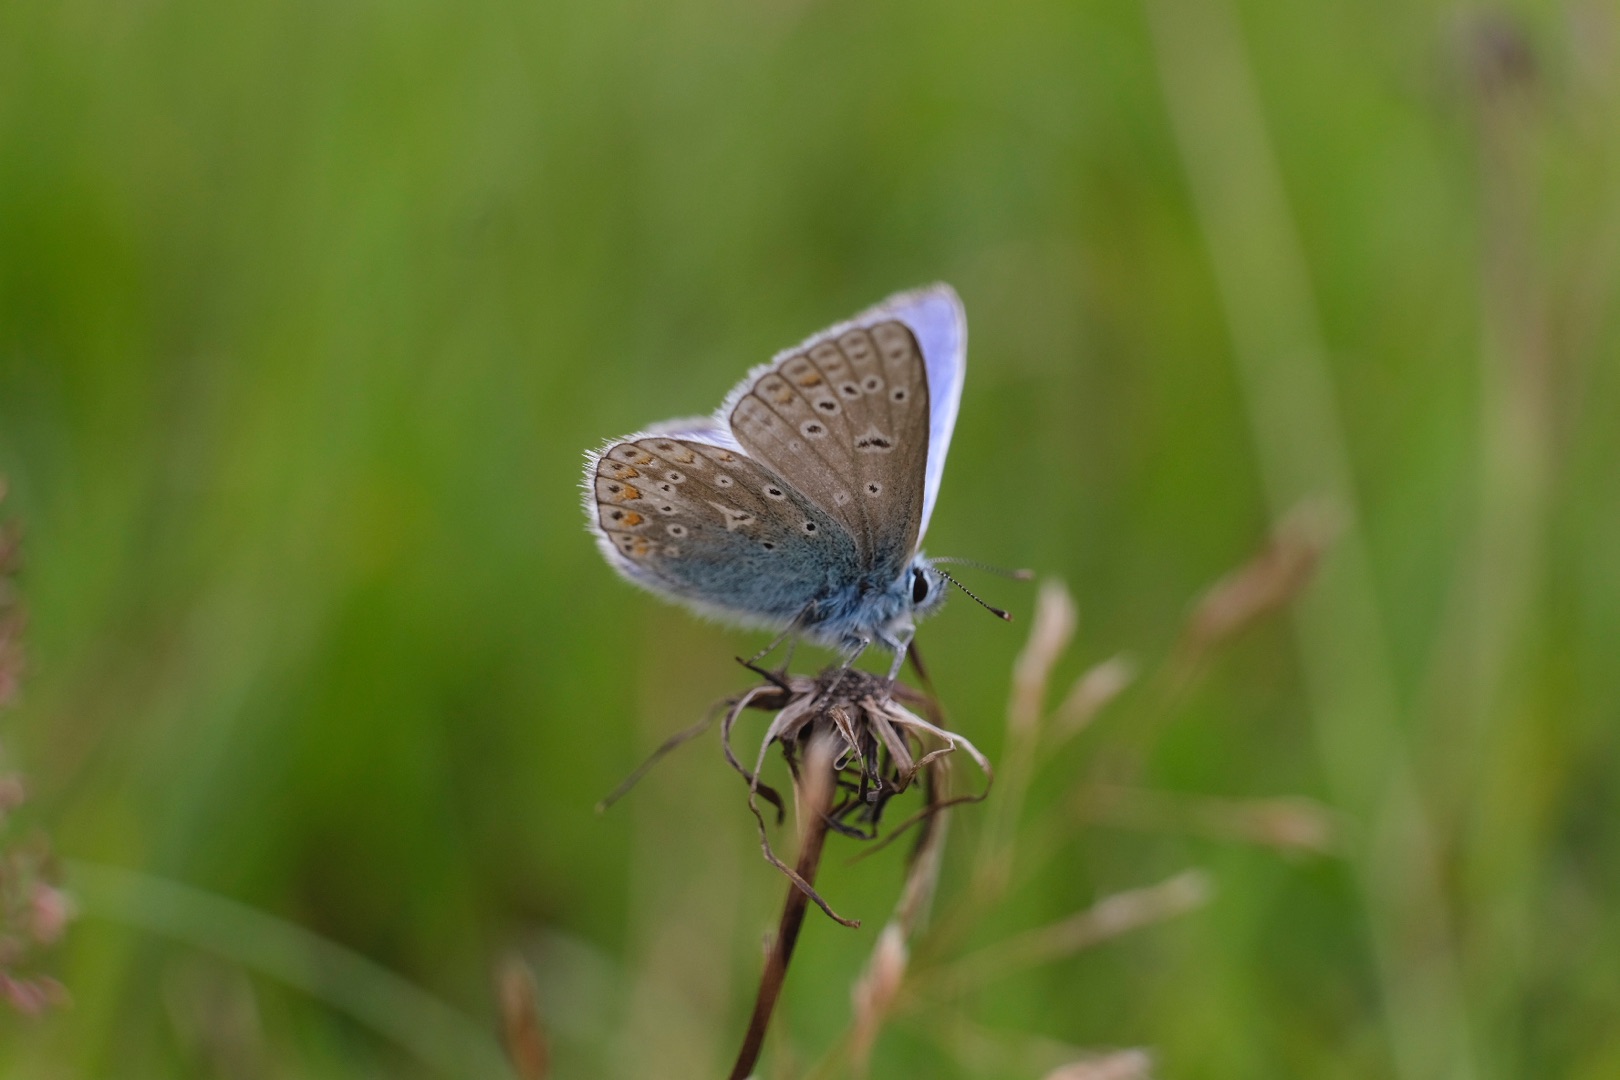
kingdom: Animalia
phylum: Arthropoda
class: Insecta
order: Lepidoptera
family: Lycaenidae
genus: Polyommatus
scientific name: Polyommatus icarus
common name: Almindelig blåfugl
